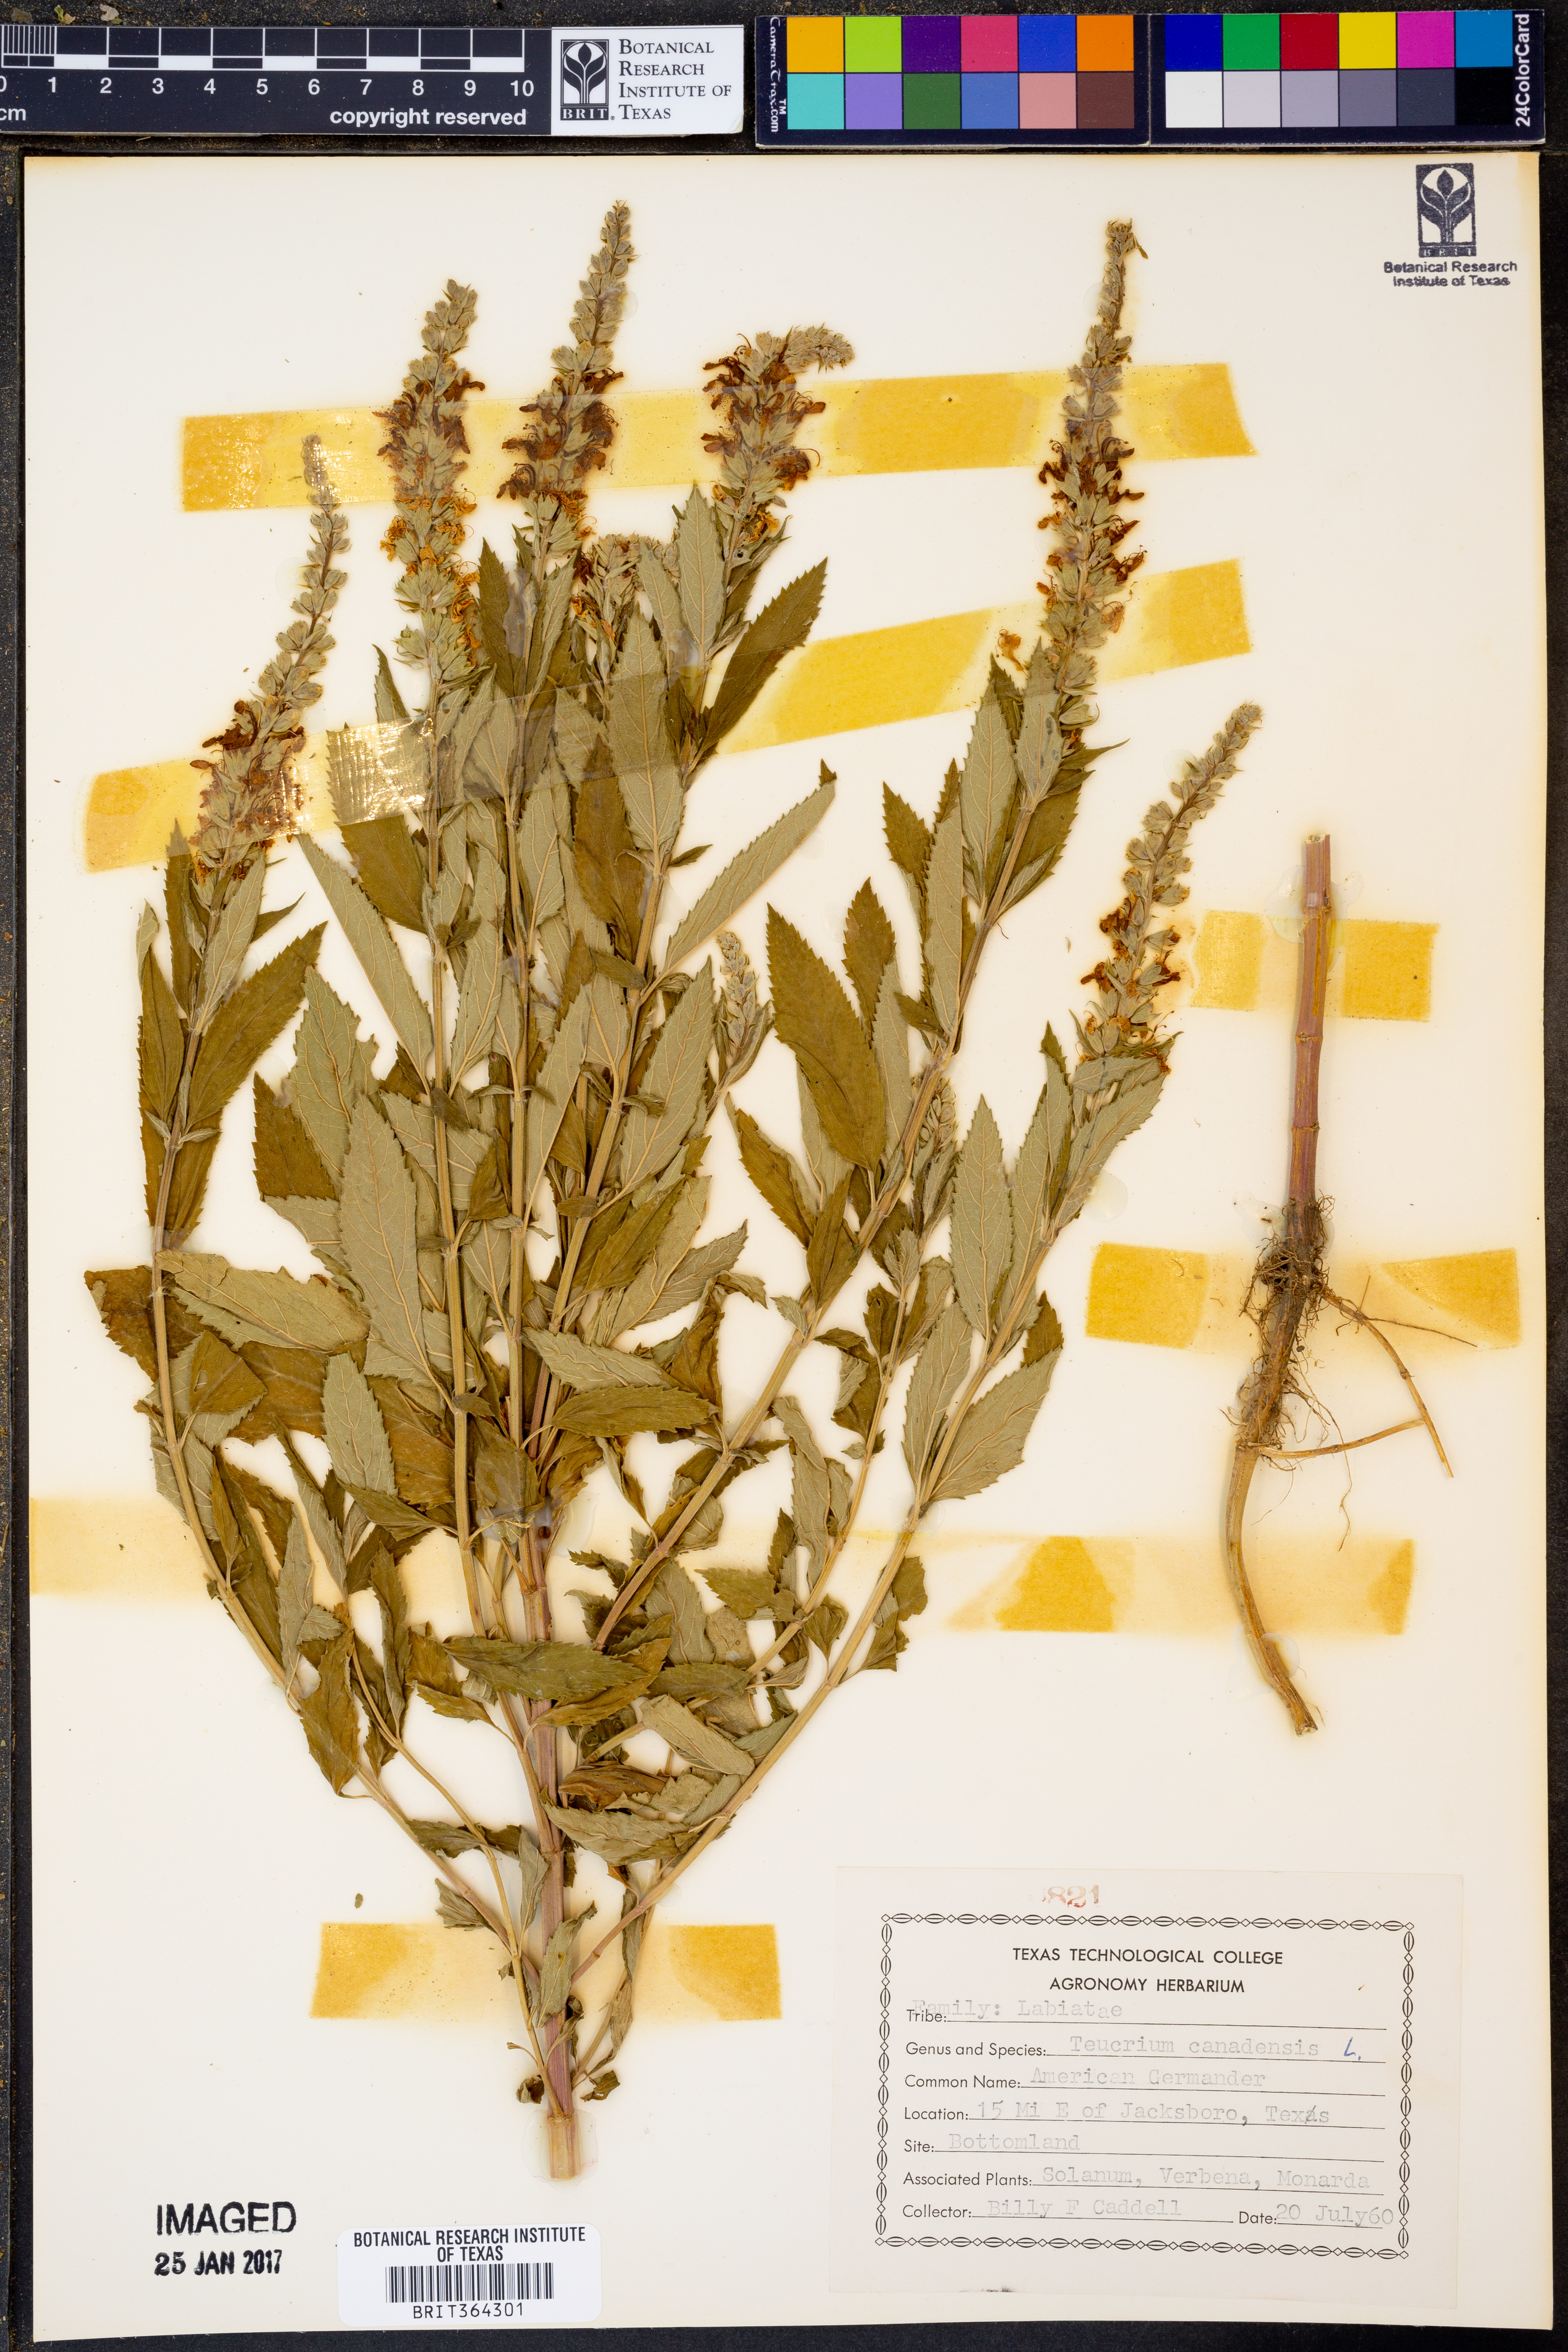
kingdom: Plantae
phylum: Tracheophyta
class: Magnoliopsida
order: Lamiales
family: Lamiaceae
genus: Teucrium
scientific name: Teucrium canadense
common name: American germander
